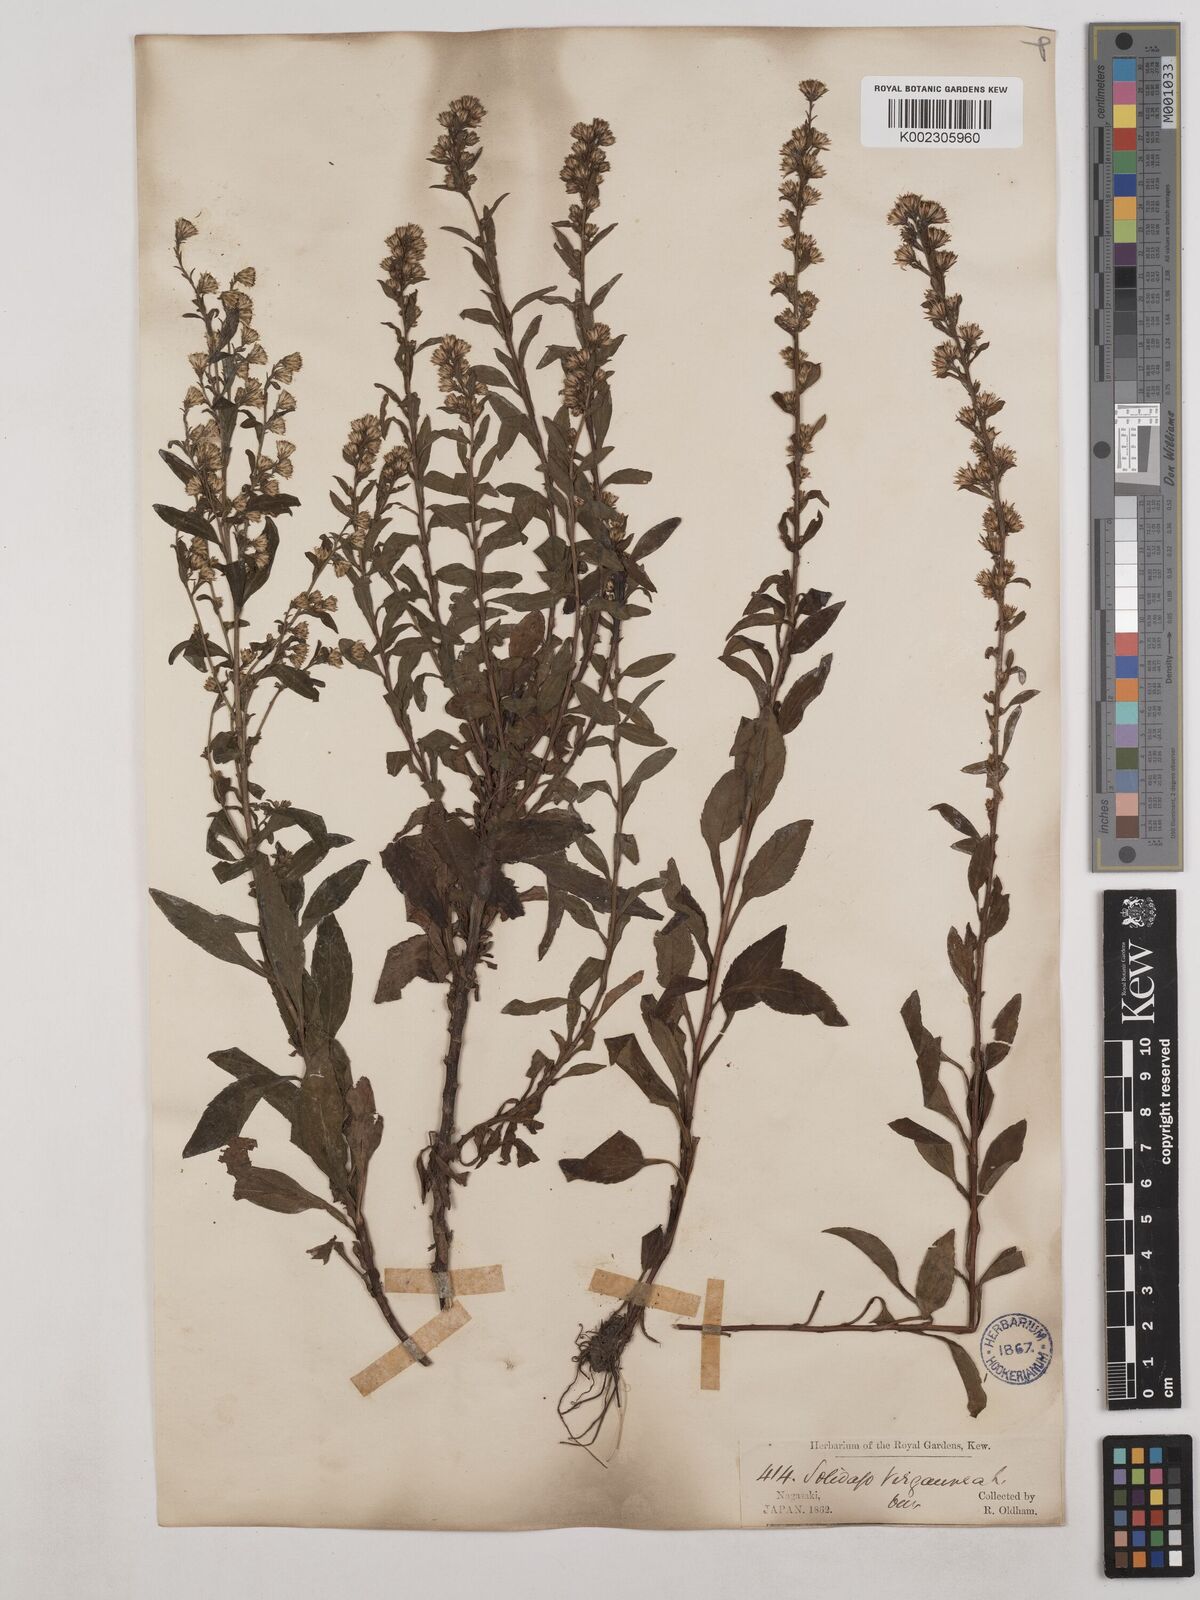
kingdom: Plantae
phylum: Tracheophyta
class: Magnoliopsida
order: Asterales
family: Asteraceae
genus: Solidago
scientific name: Solidago virgaurea
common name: Goldenrod
